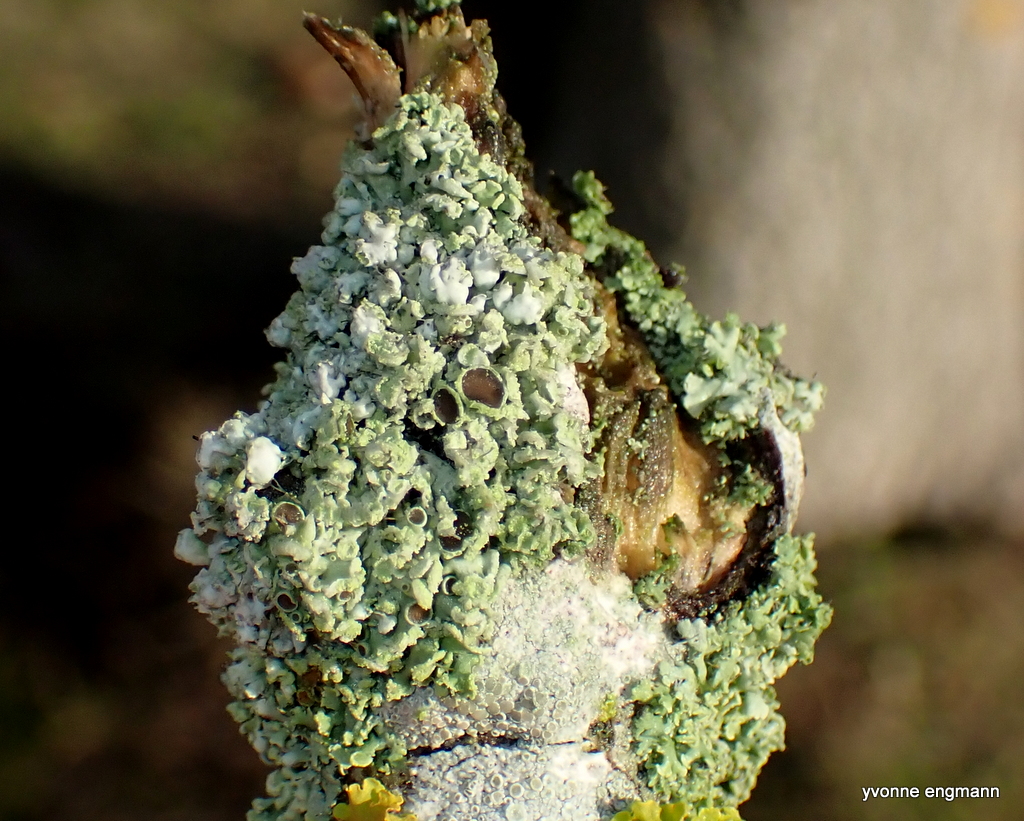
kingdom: Fungi
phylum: Ascomycota
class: Lecanoromycetes
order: Caliciales
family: Physciaceae
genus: Physcia
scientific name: Physcia tenella
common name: spæd rosetlav
